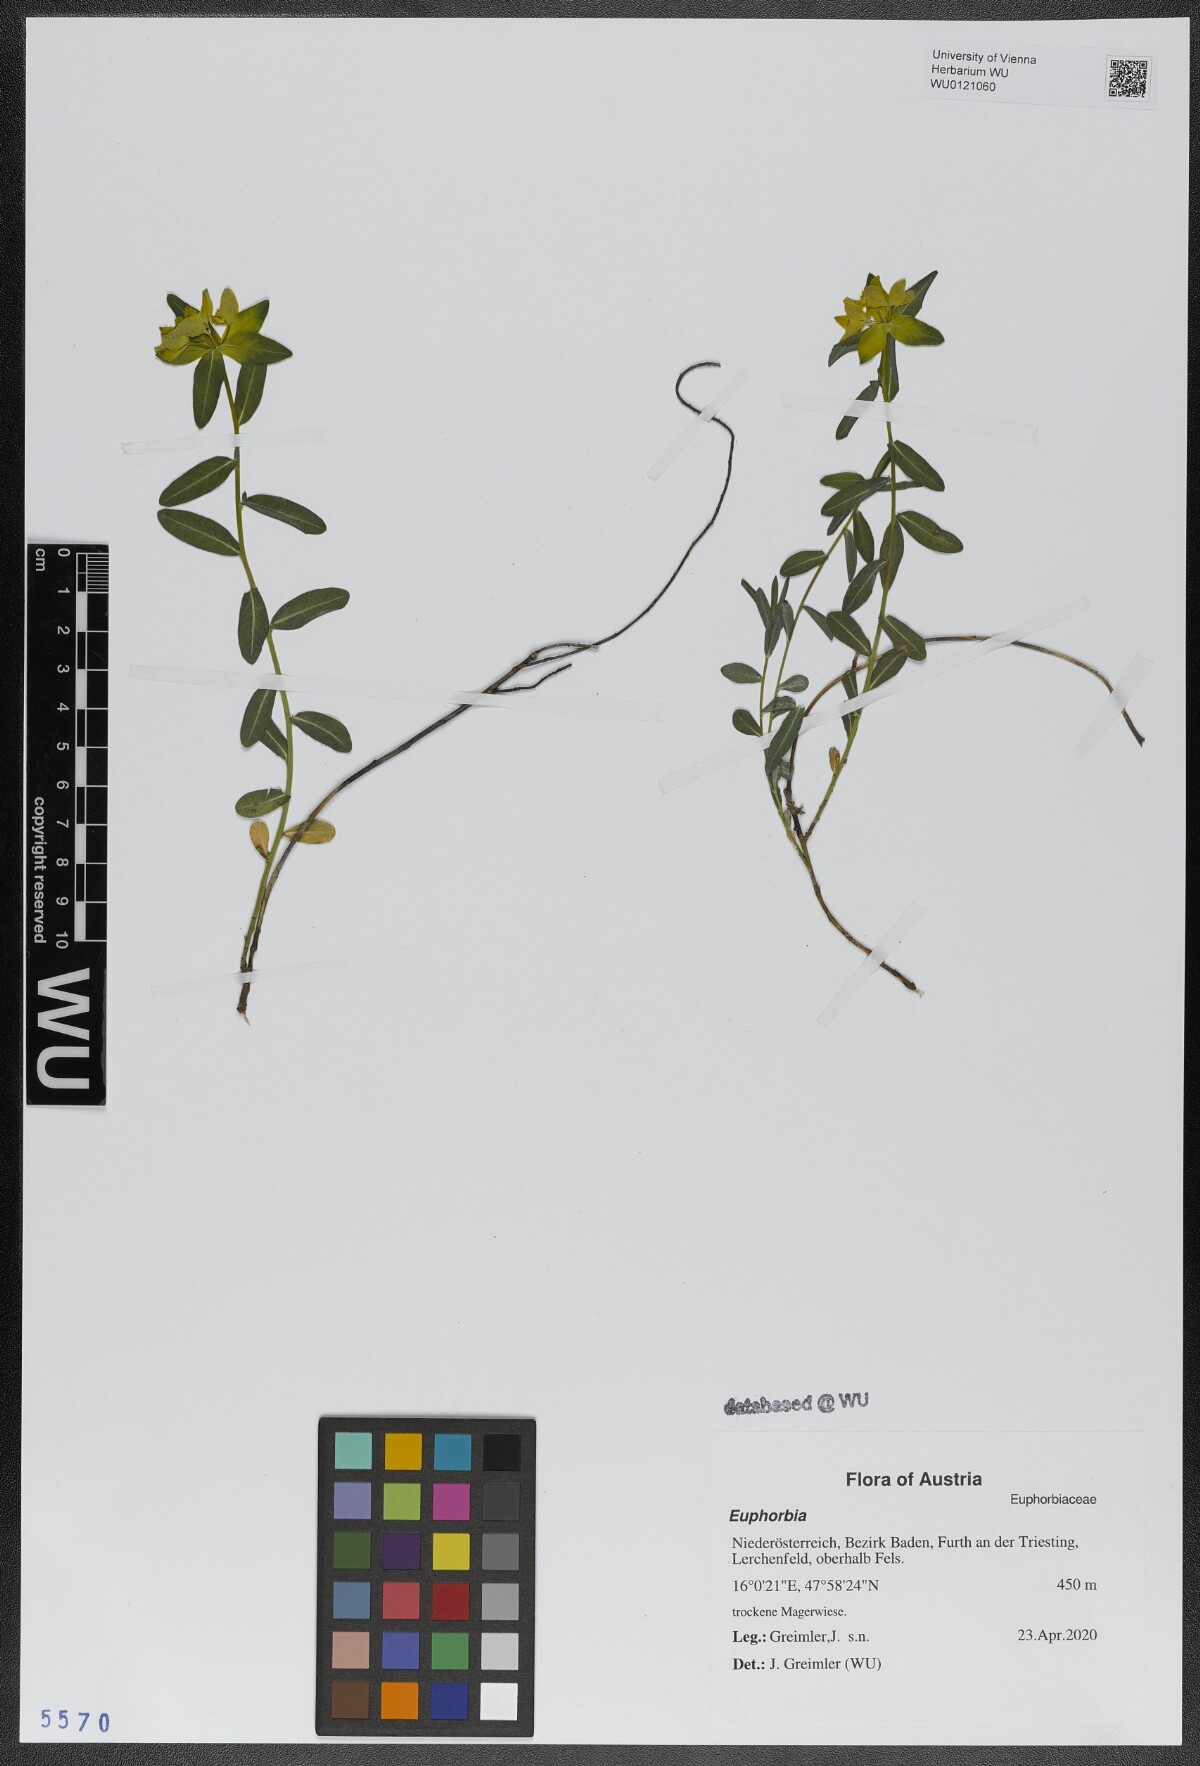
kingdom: Plantae
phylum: Tracheophyta
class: Magnoliopsida
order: Malpighiales
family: Euphorbiaceae
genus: Euphorbia
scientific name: Euphorbia
